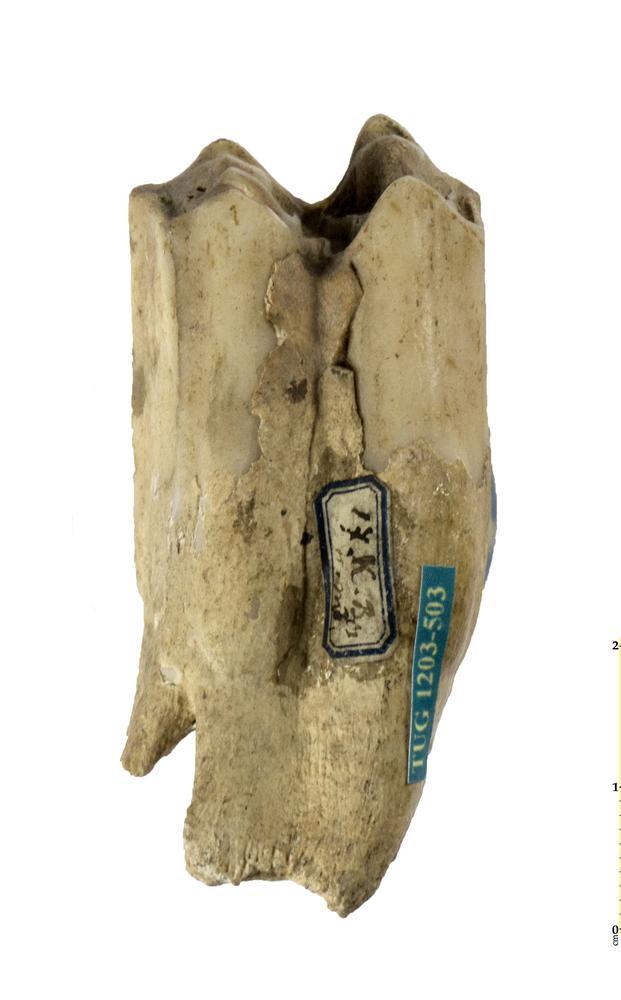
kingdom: Animalia
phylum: Chordata
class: Mammalia
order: Artiodactyla
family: Bovidae
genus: Bos
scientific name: Bos
